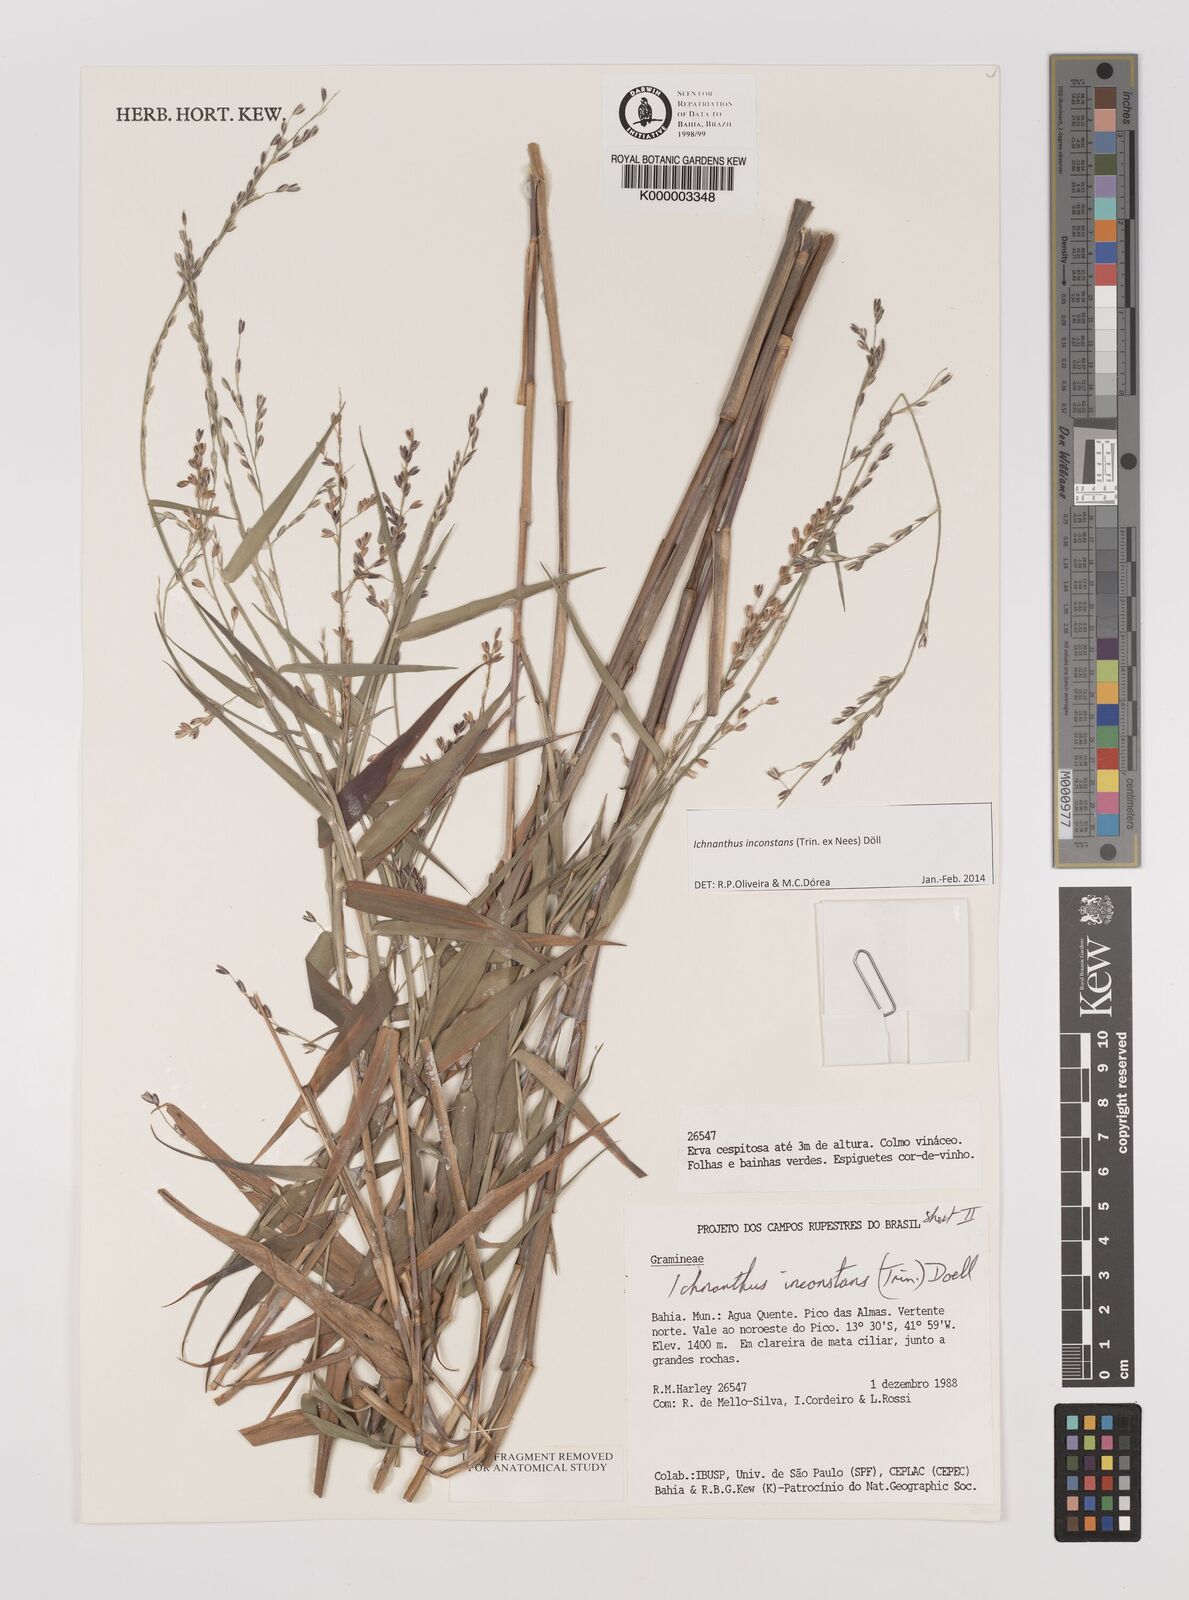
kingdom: Plantae
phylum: Tracheophyta
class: Liliopsida
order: Poales
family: Poaceae
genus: Ichnanthus
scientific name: Ichnanthus
